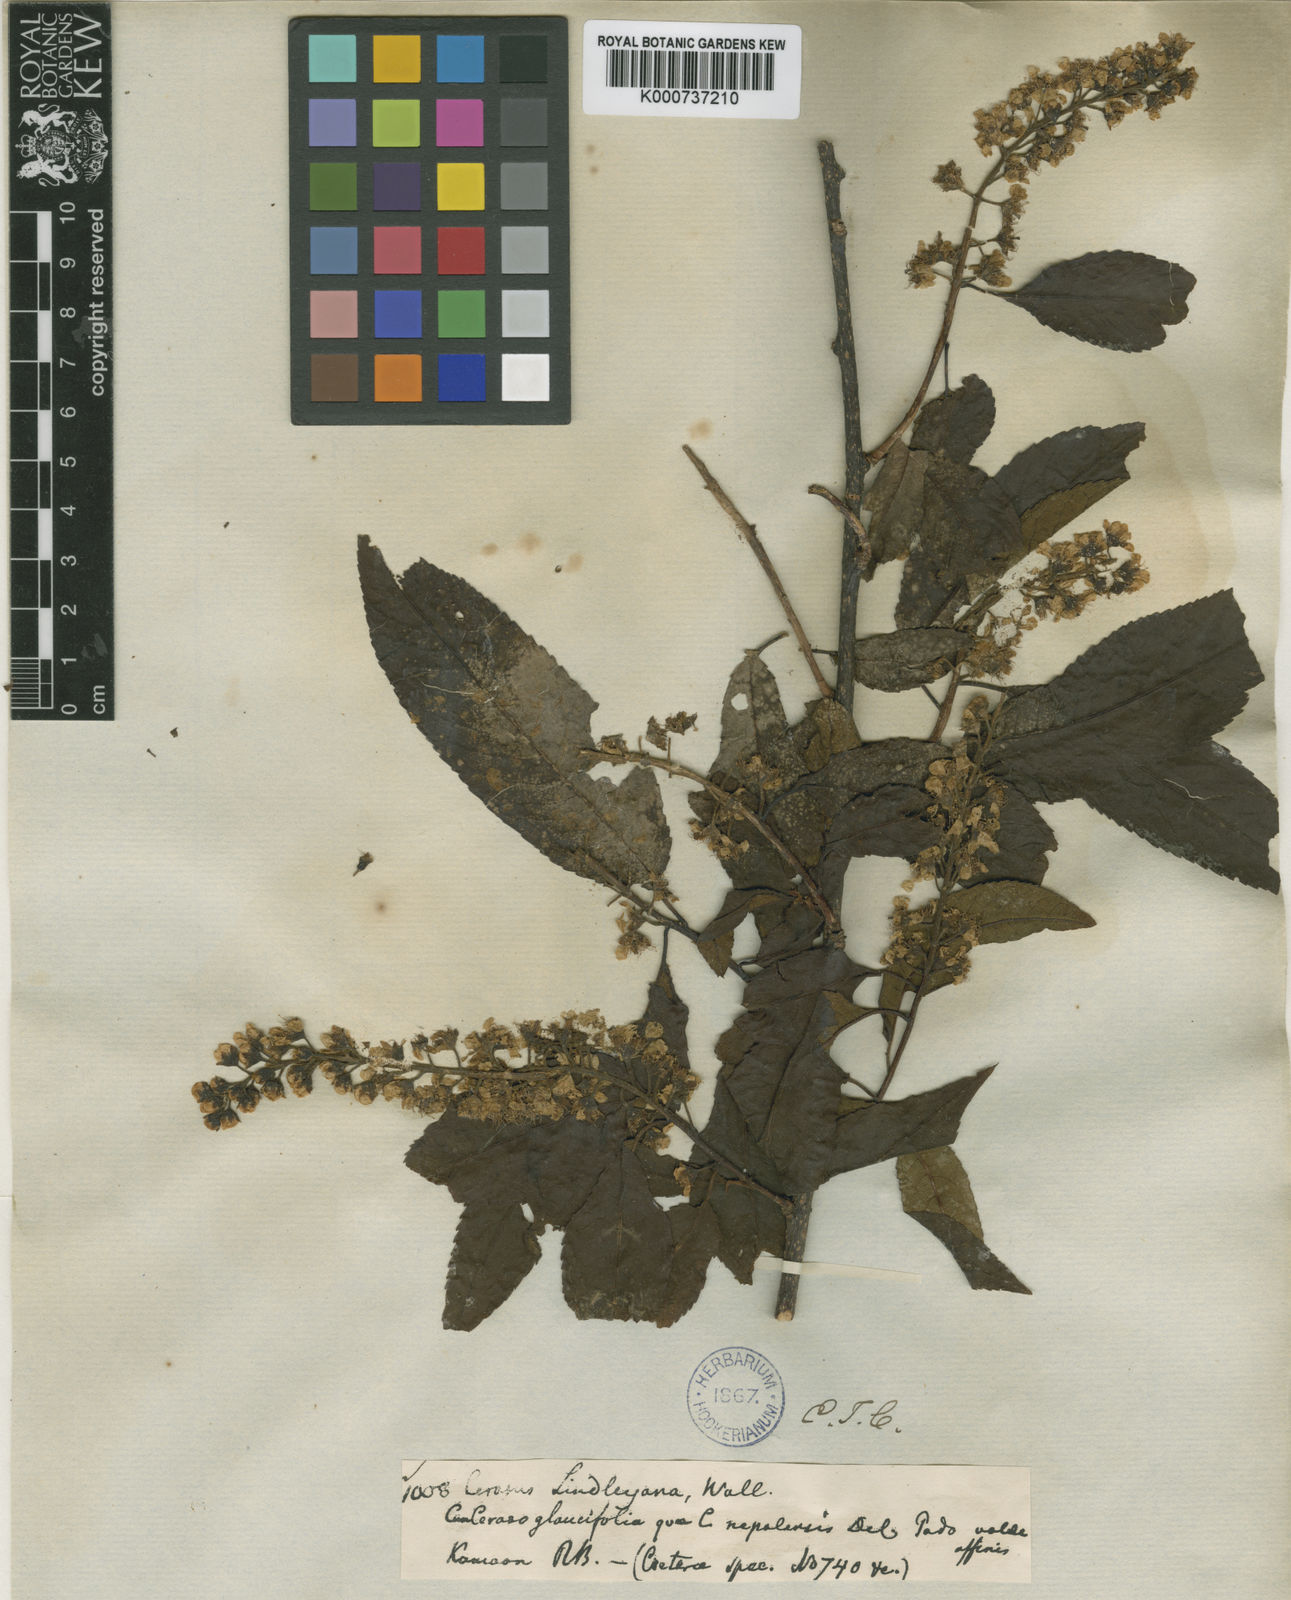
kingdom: Plantae
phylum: Tracheophyta
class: Magnoliopsida
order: Rosales
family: Rosaceae
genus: Prunus
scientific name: Prunus
